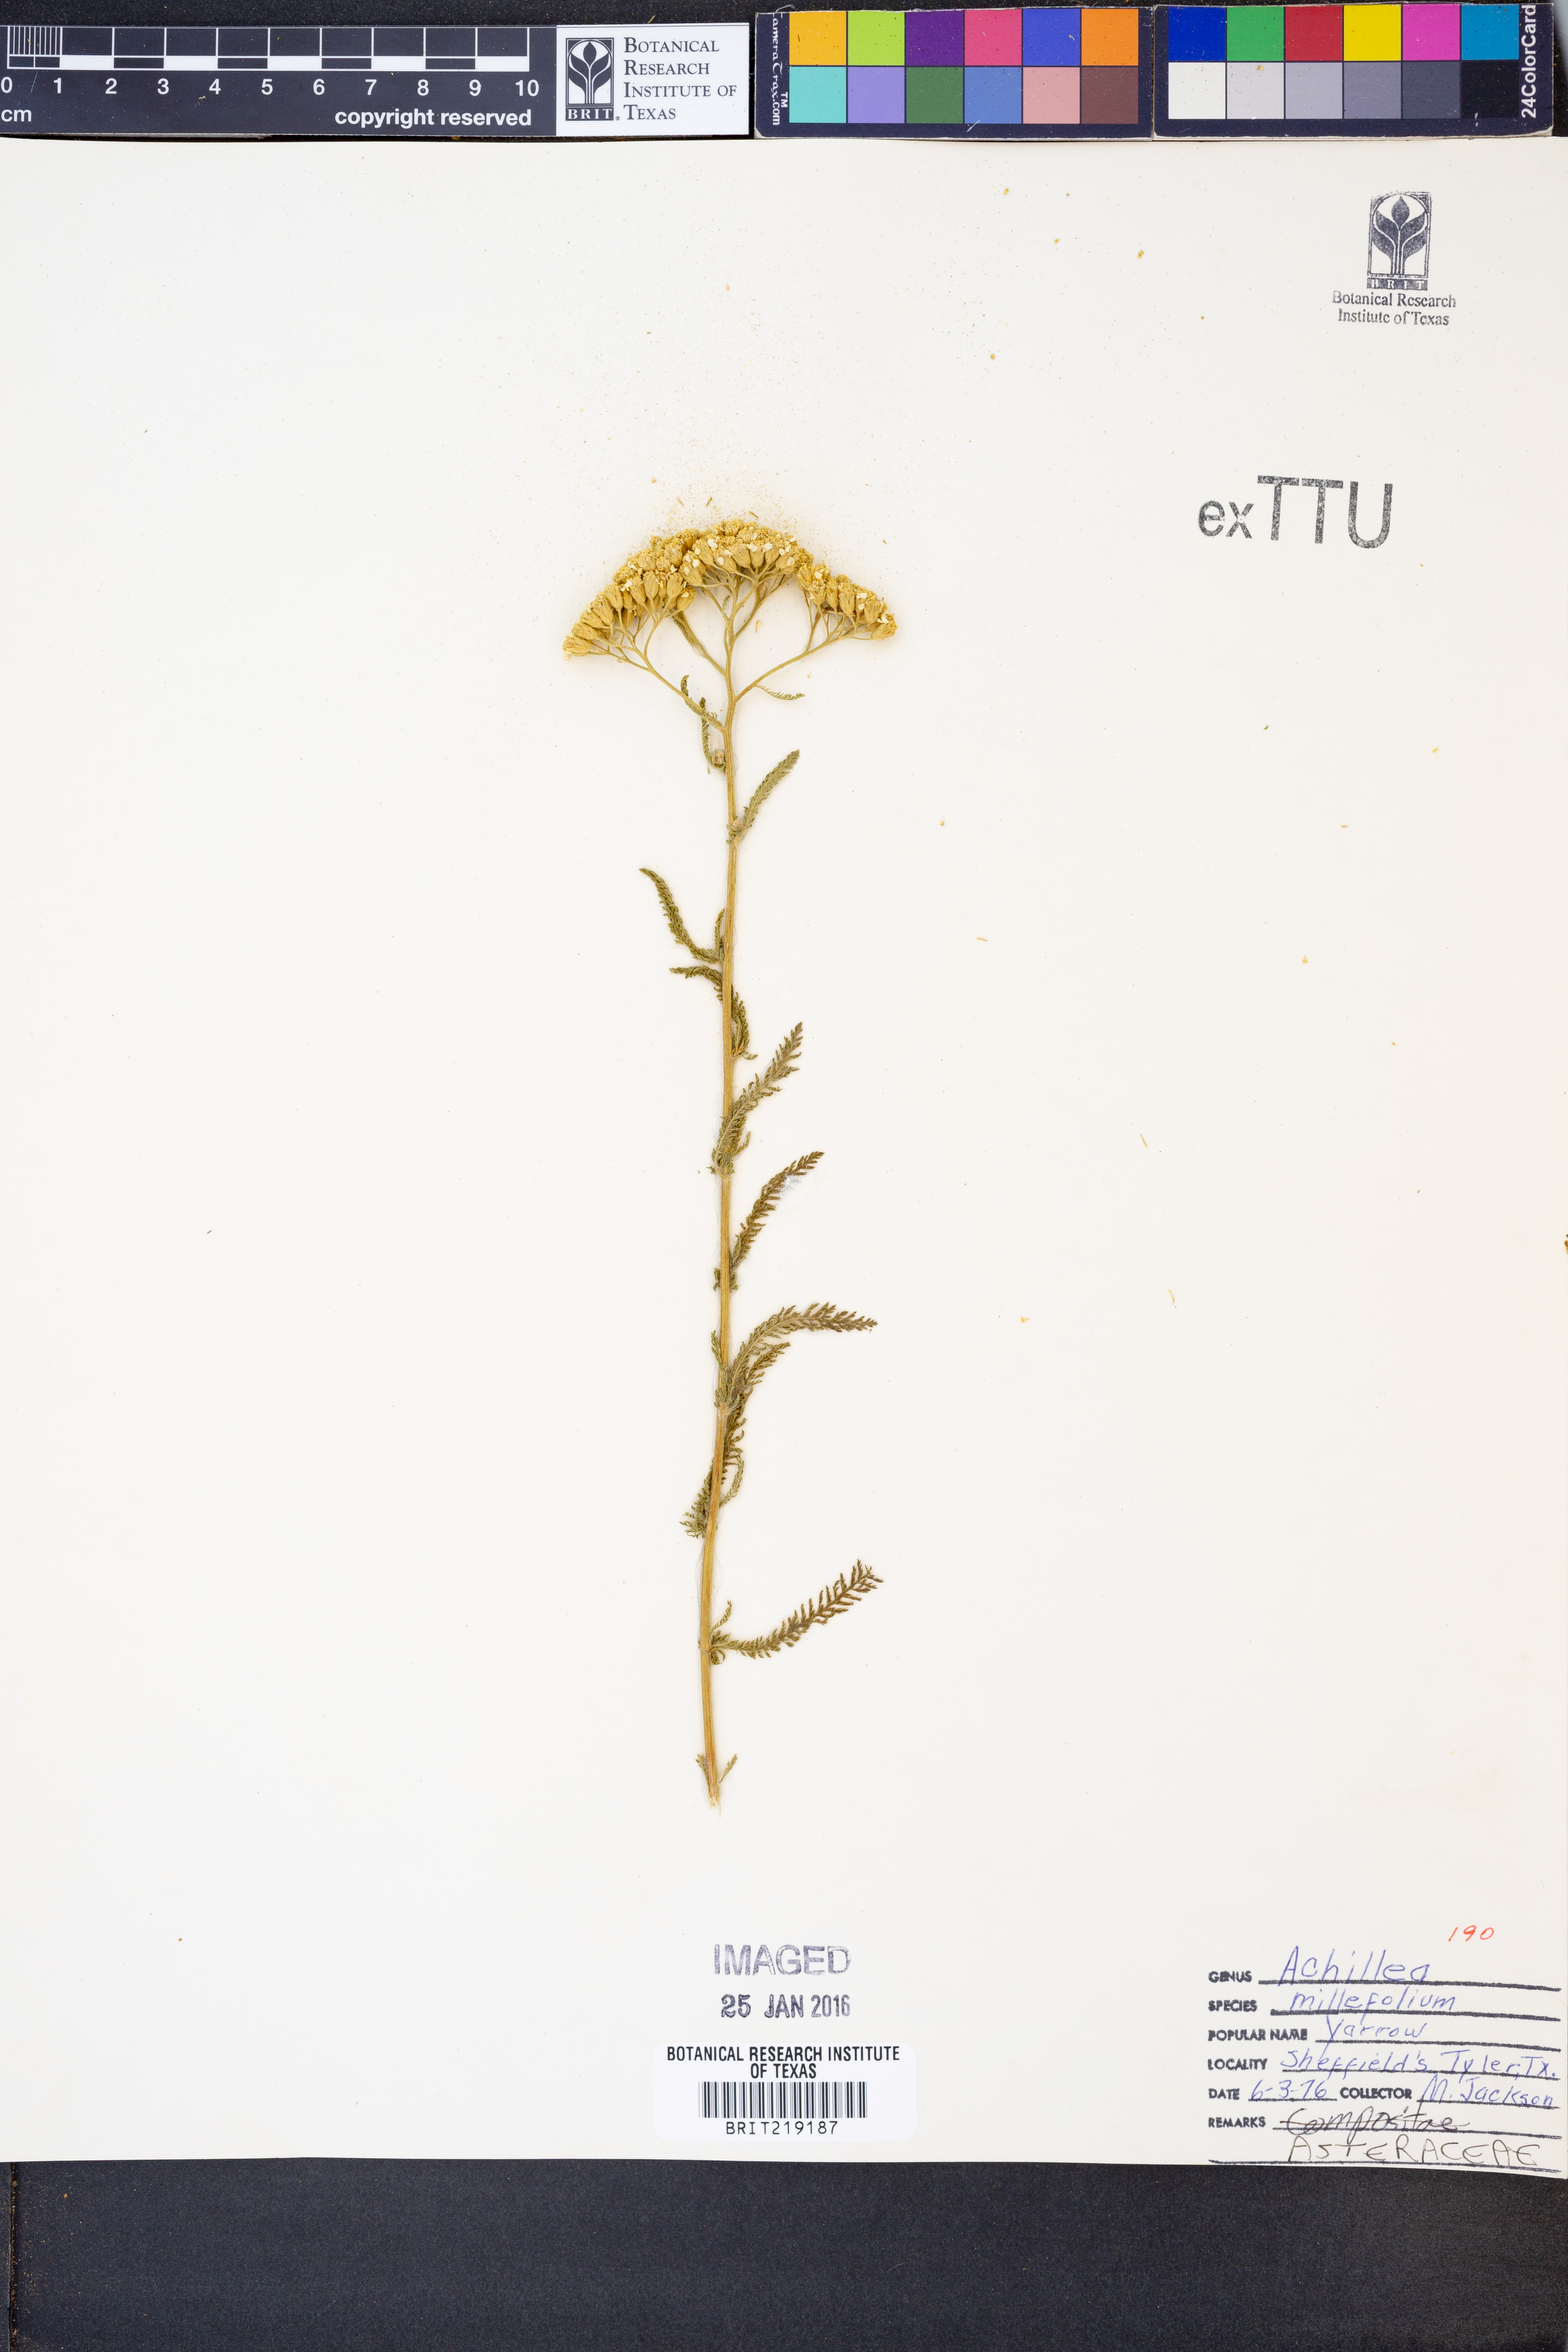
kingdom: Plantae
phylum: Tracheophyta
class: Magnoliopsida
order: Asterales
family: Asteraceae
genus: Achillea
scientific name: Achillea millefolium
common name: Yarrow
